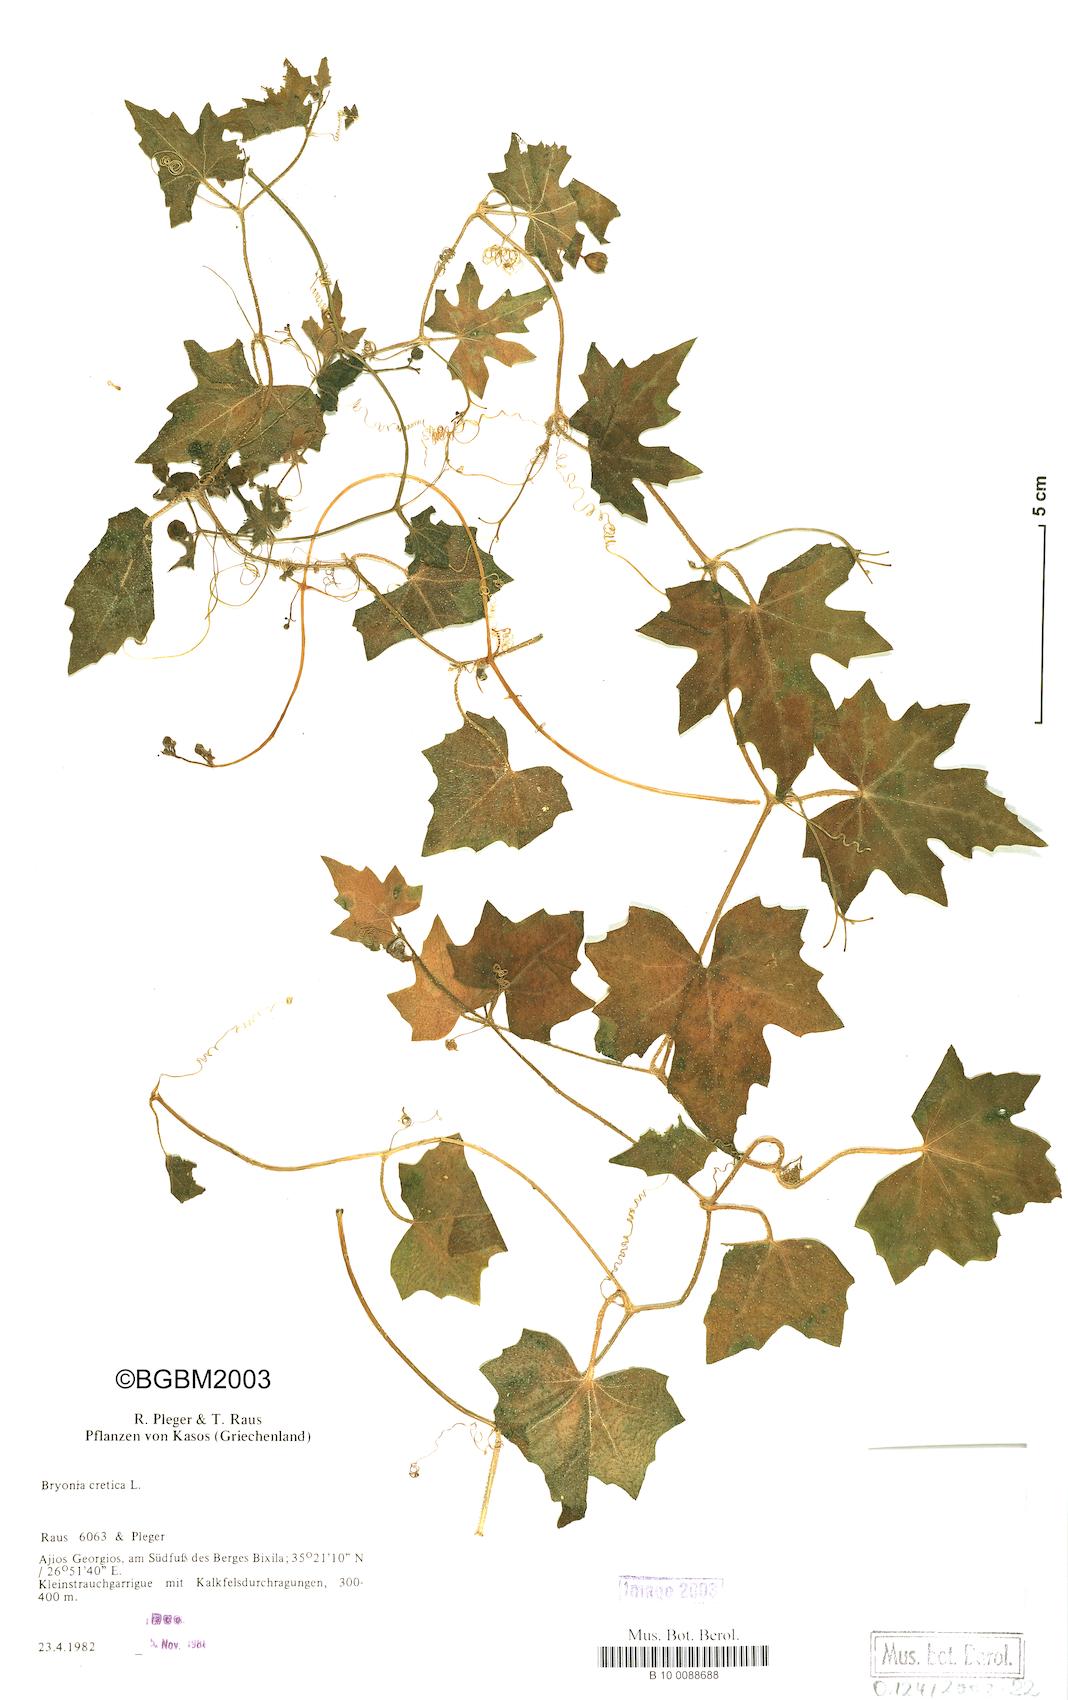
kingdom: Plantae
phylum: Tracheophyta
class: Magnoliopsida
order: Cucurbitales
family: Cucurbitaceae
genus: Bryonia
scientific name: Bryonia cretica
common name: Cretan bryony
